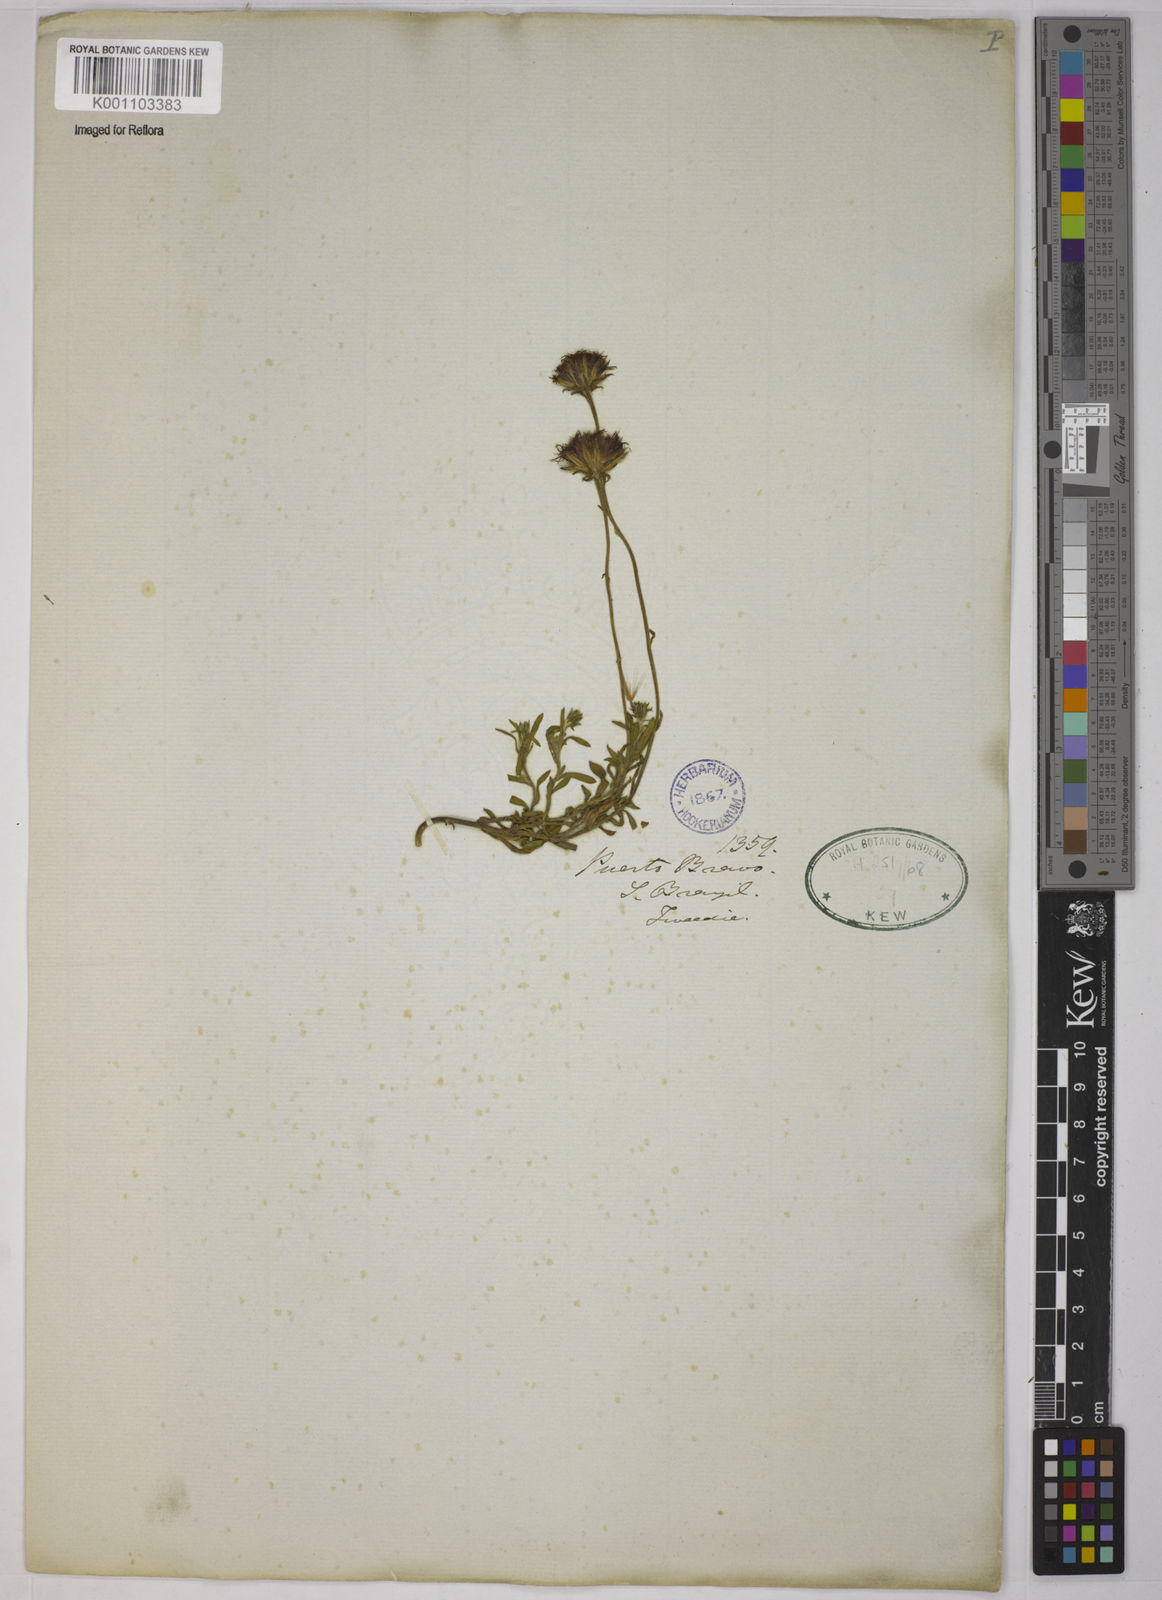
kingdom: Plantae
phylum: Tracheophyta
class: Magnoliopsida
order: Asterales
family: Asteraceae
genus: Leptostelma
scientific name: Leptostelma
